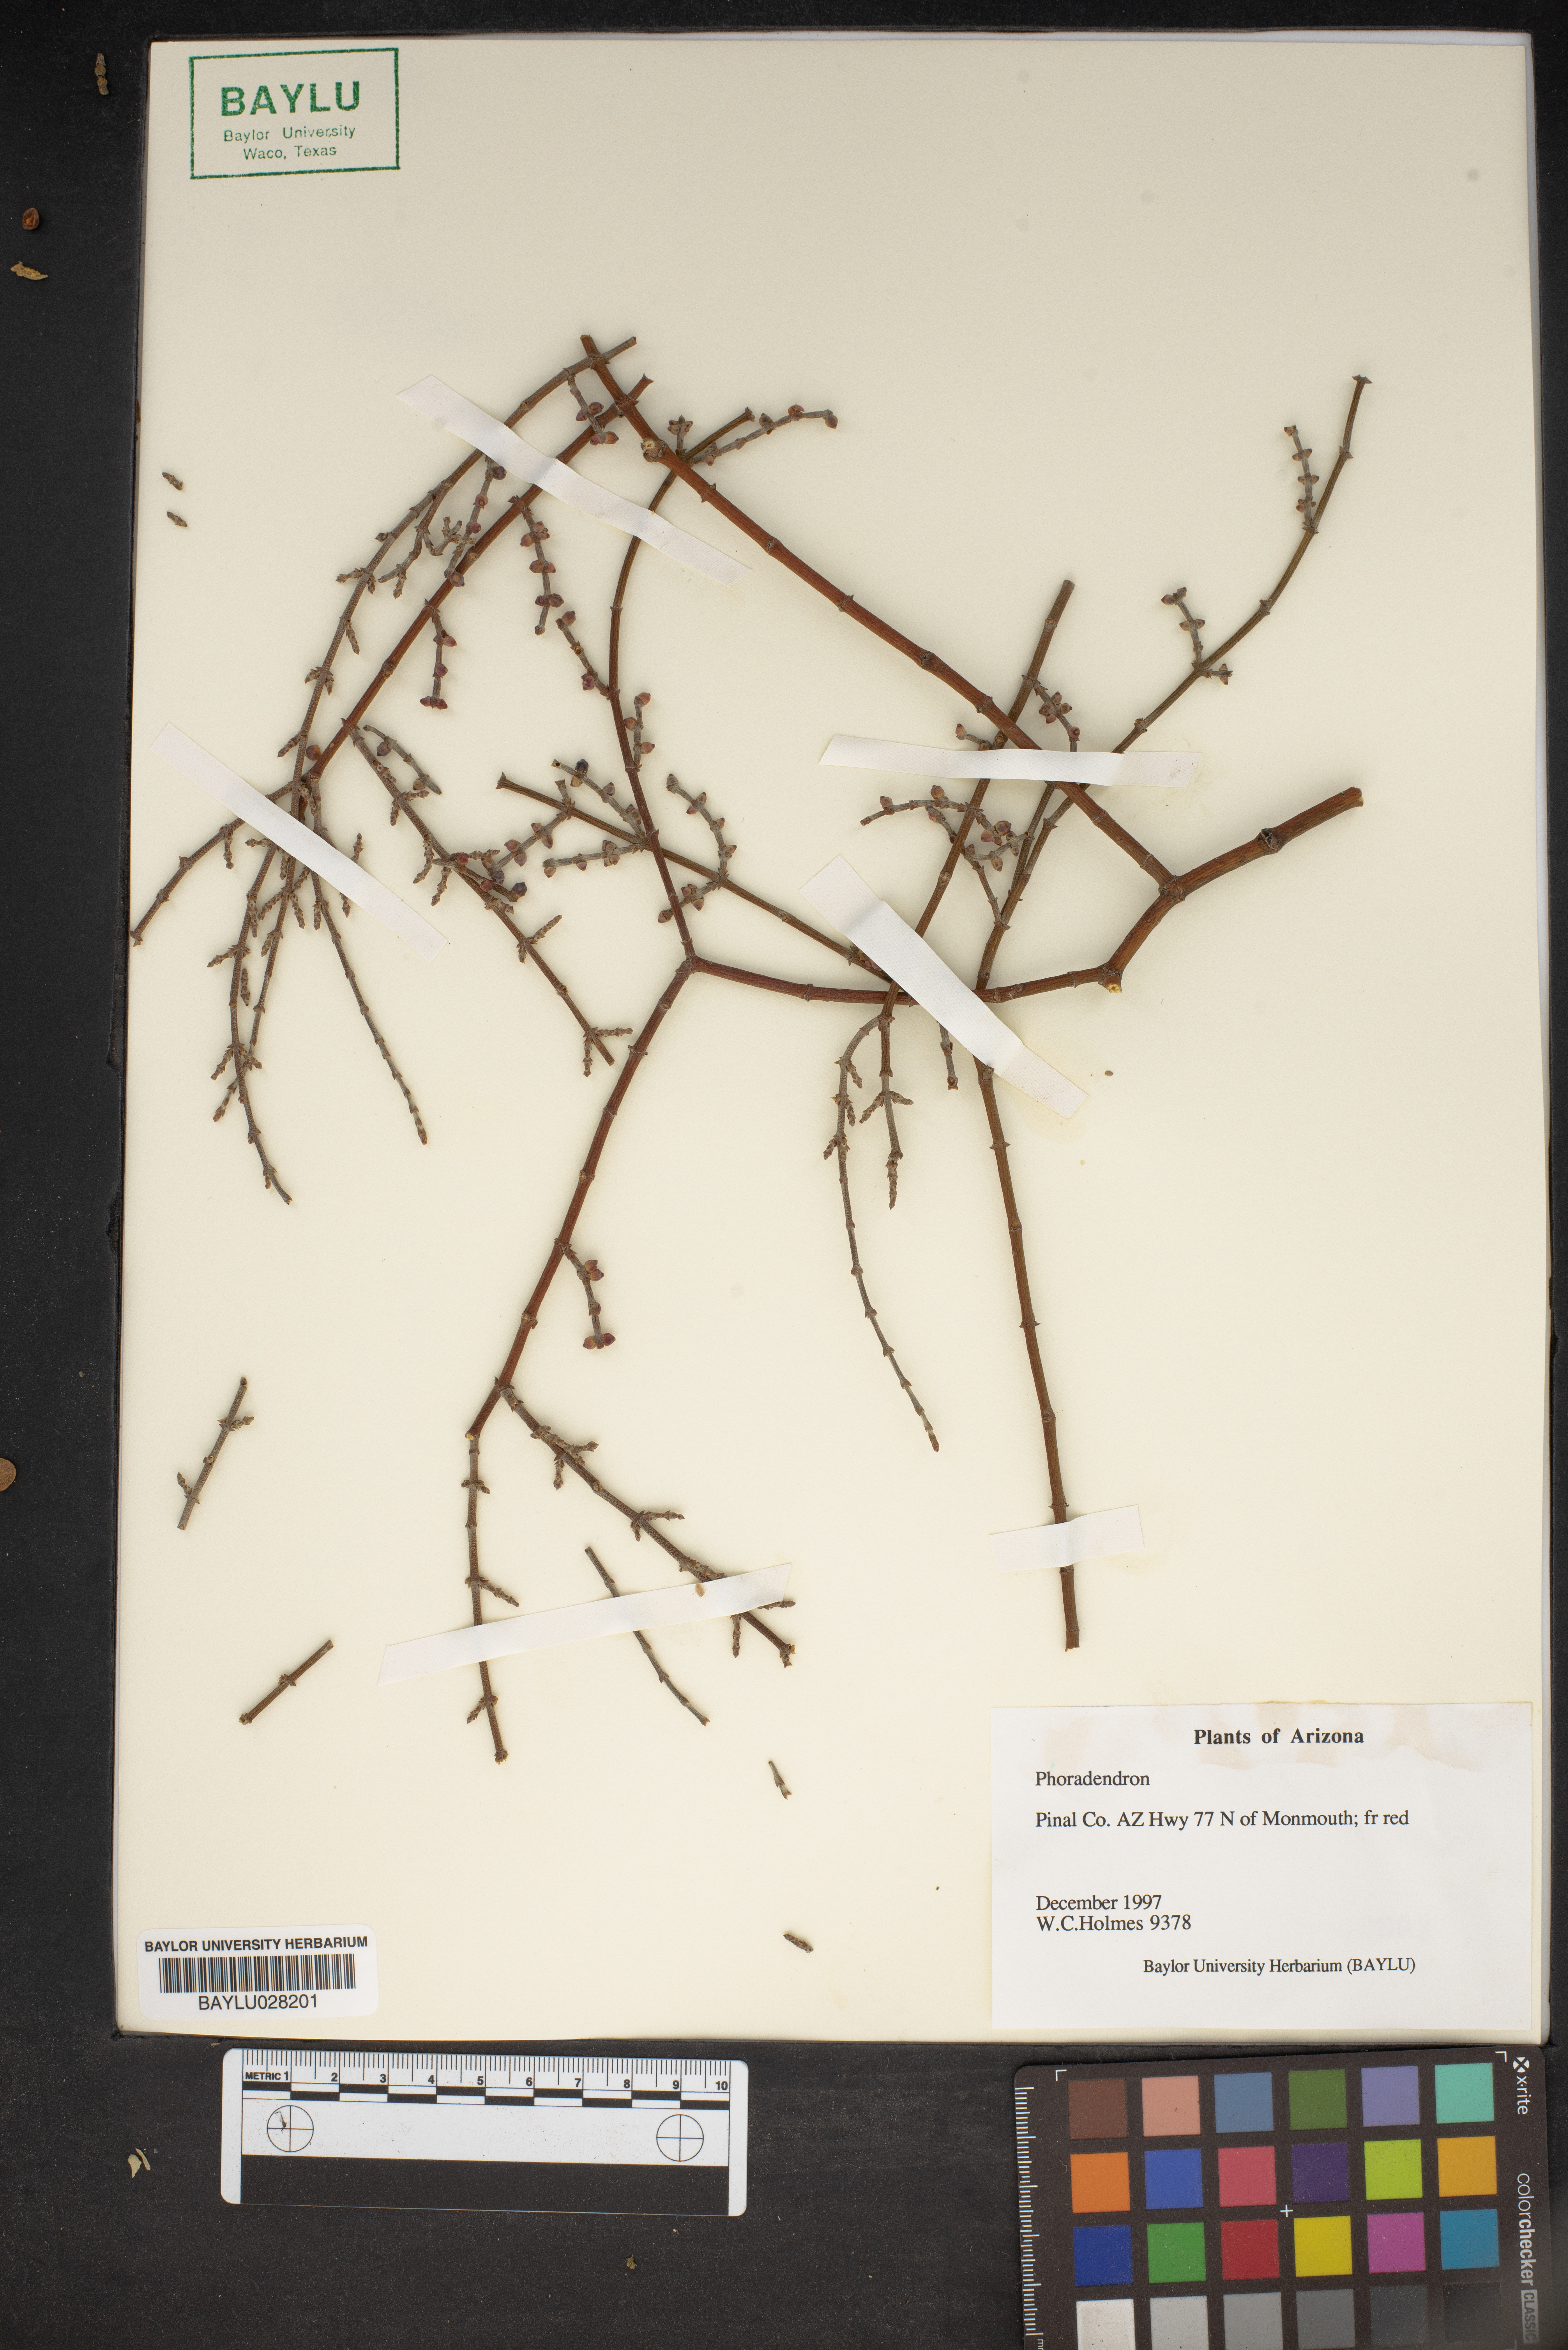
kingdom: Plantae
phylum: Tracheophyta
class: Magnoliopsida
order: Santalales
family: Viscaceae
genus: Phoradendron
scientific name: Phoradendron
